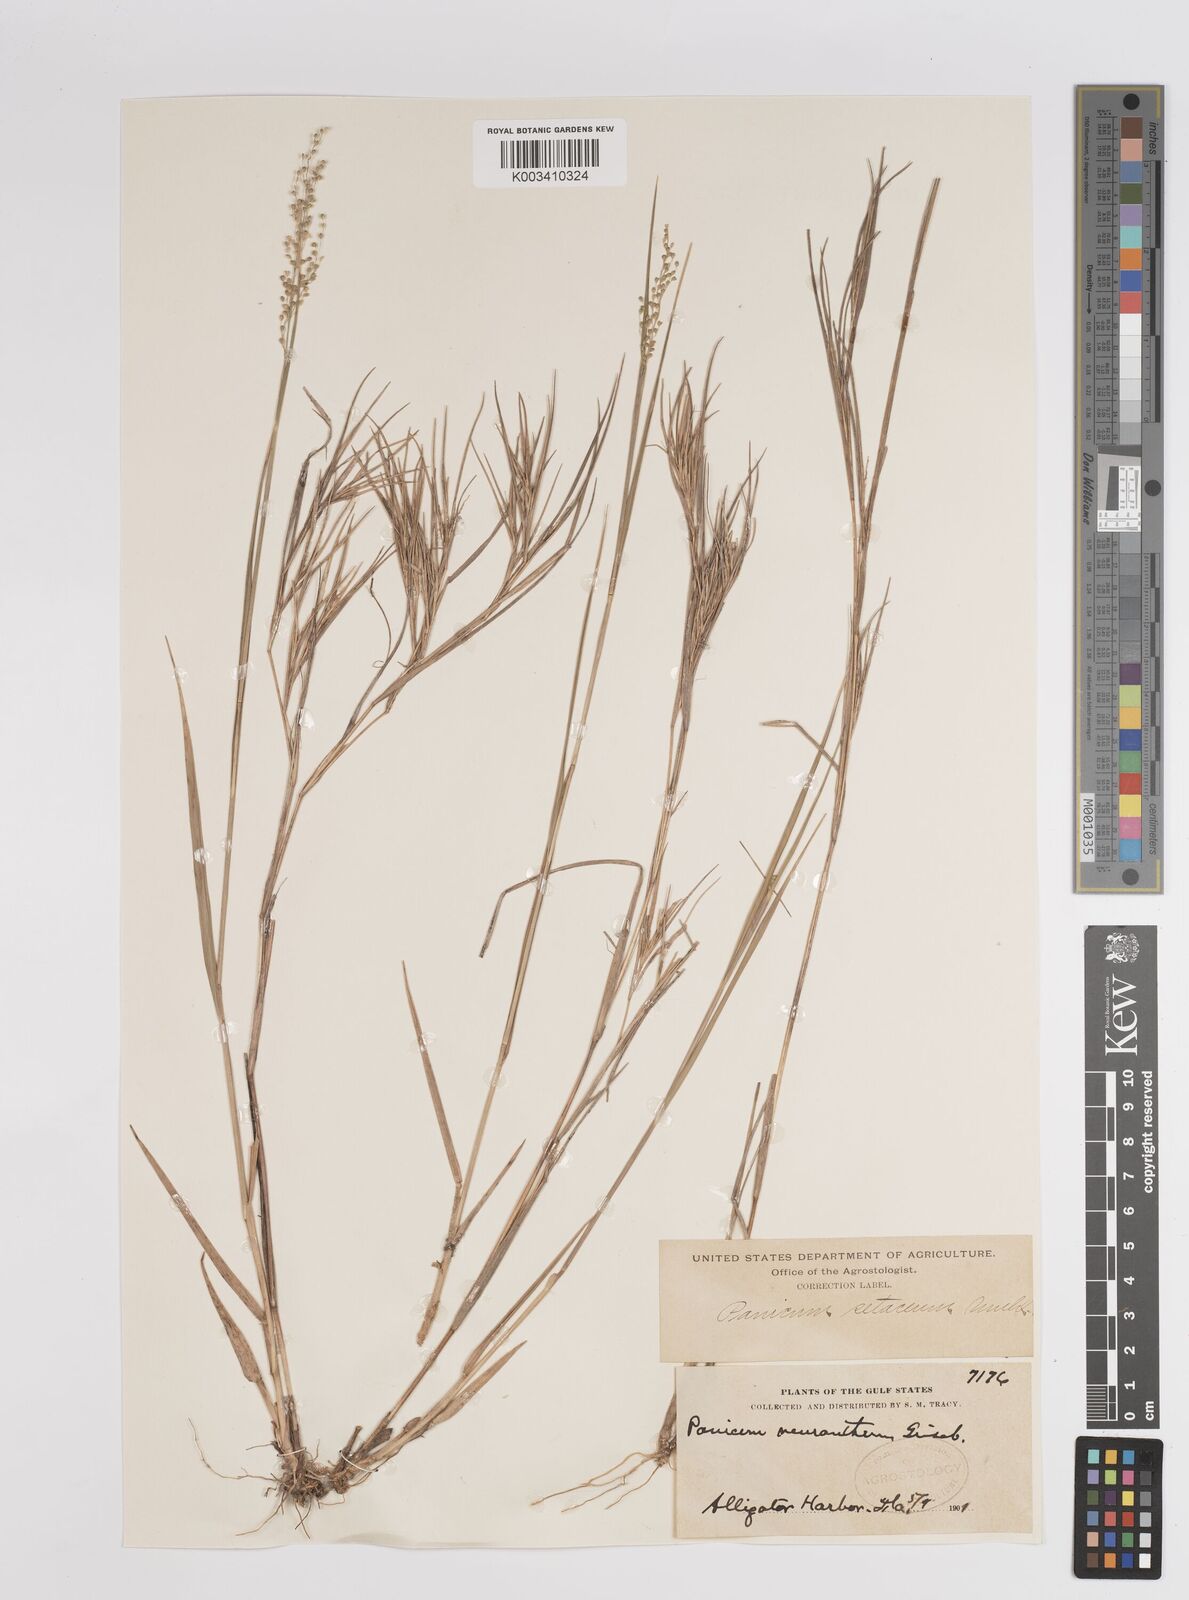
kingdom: Plantae
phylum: Tracheophyta
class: Liliopsida
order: Poales
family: Poaceae
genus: Dichanthelium
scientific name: Dichanthelium aciculare
